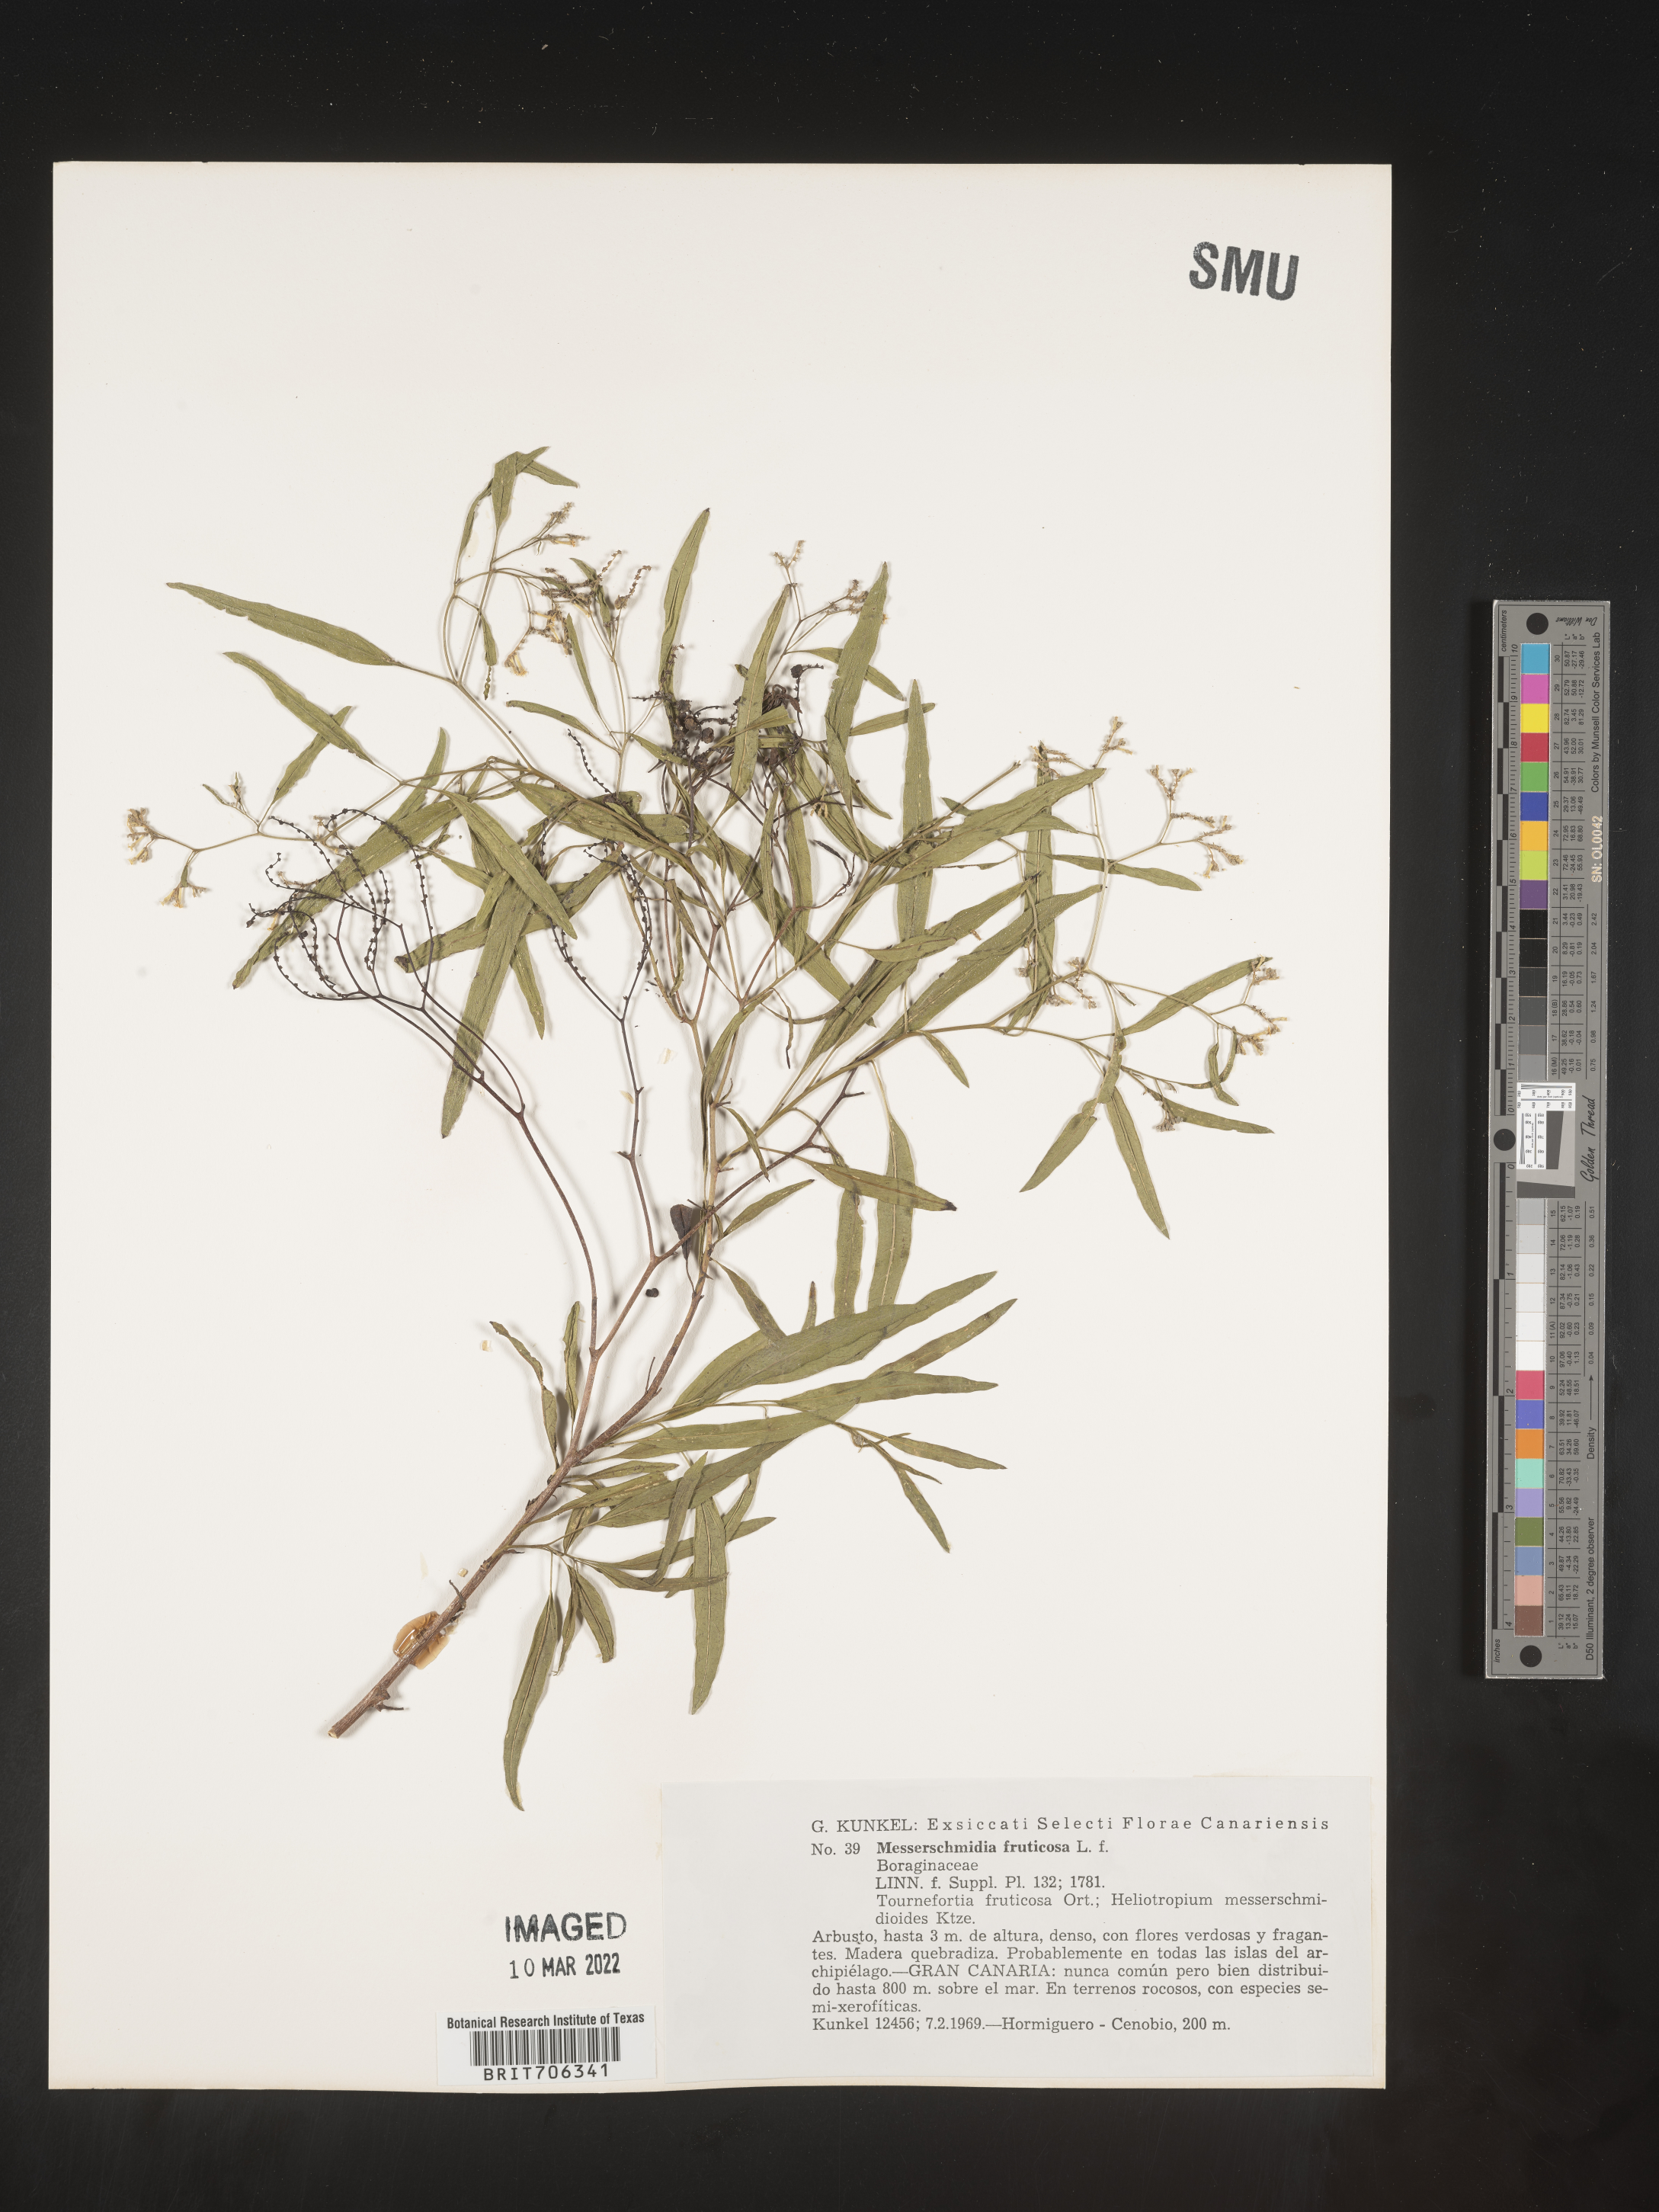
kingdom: Plantae
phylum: Tracheophyta
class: Magnoliopsida
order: Boraginales
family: Boraginaceae
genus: Messerschmidia
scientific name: Messerschmidia
